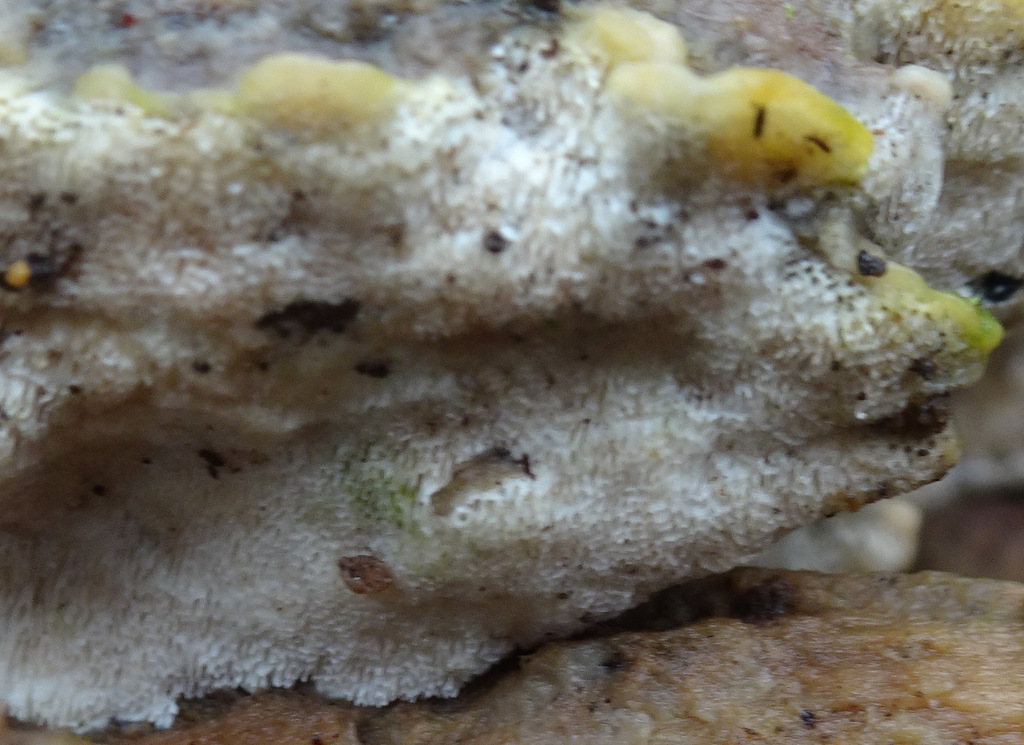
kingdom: Fungi
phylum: Basidiomycota
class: Agaricomycetes
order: Polyporales
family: Steccherinaceae
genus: Antrodiella
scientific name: Antrodiella serpula
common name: gulrandet elastikporesvamp
